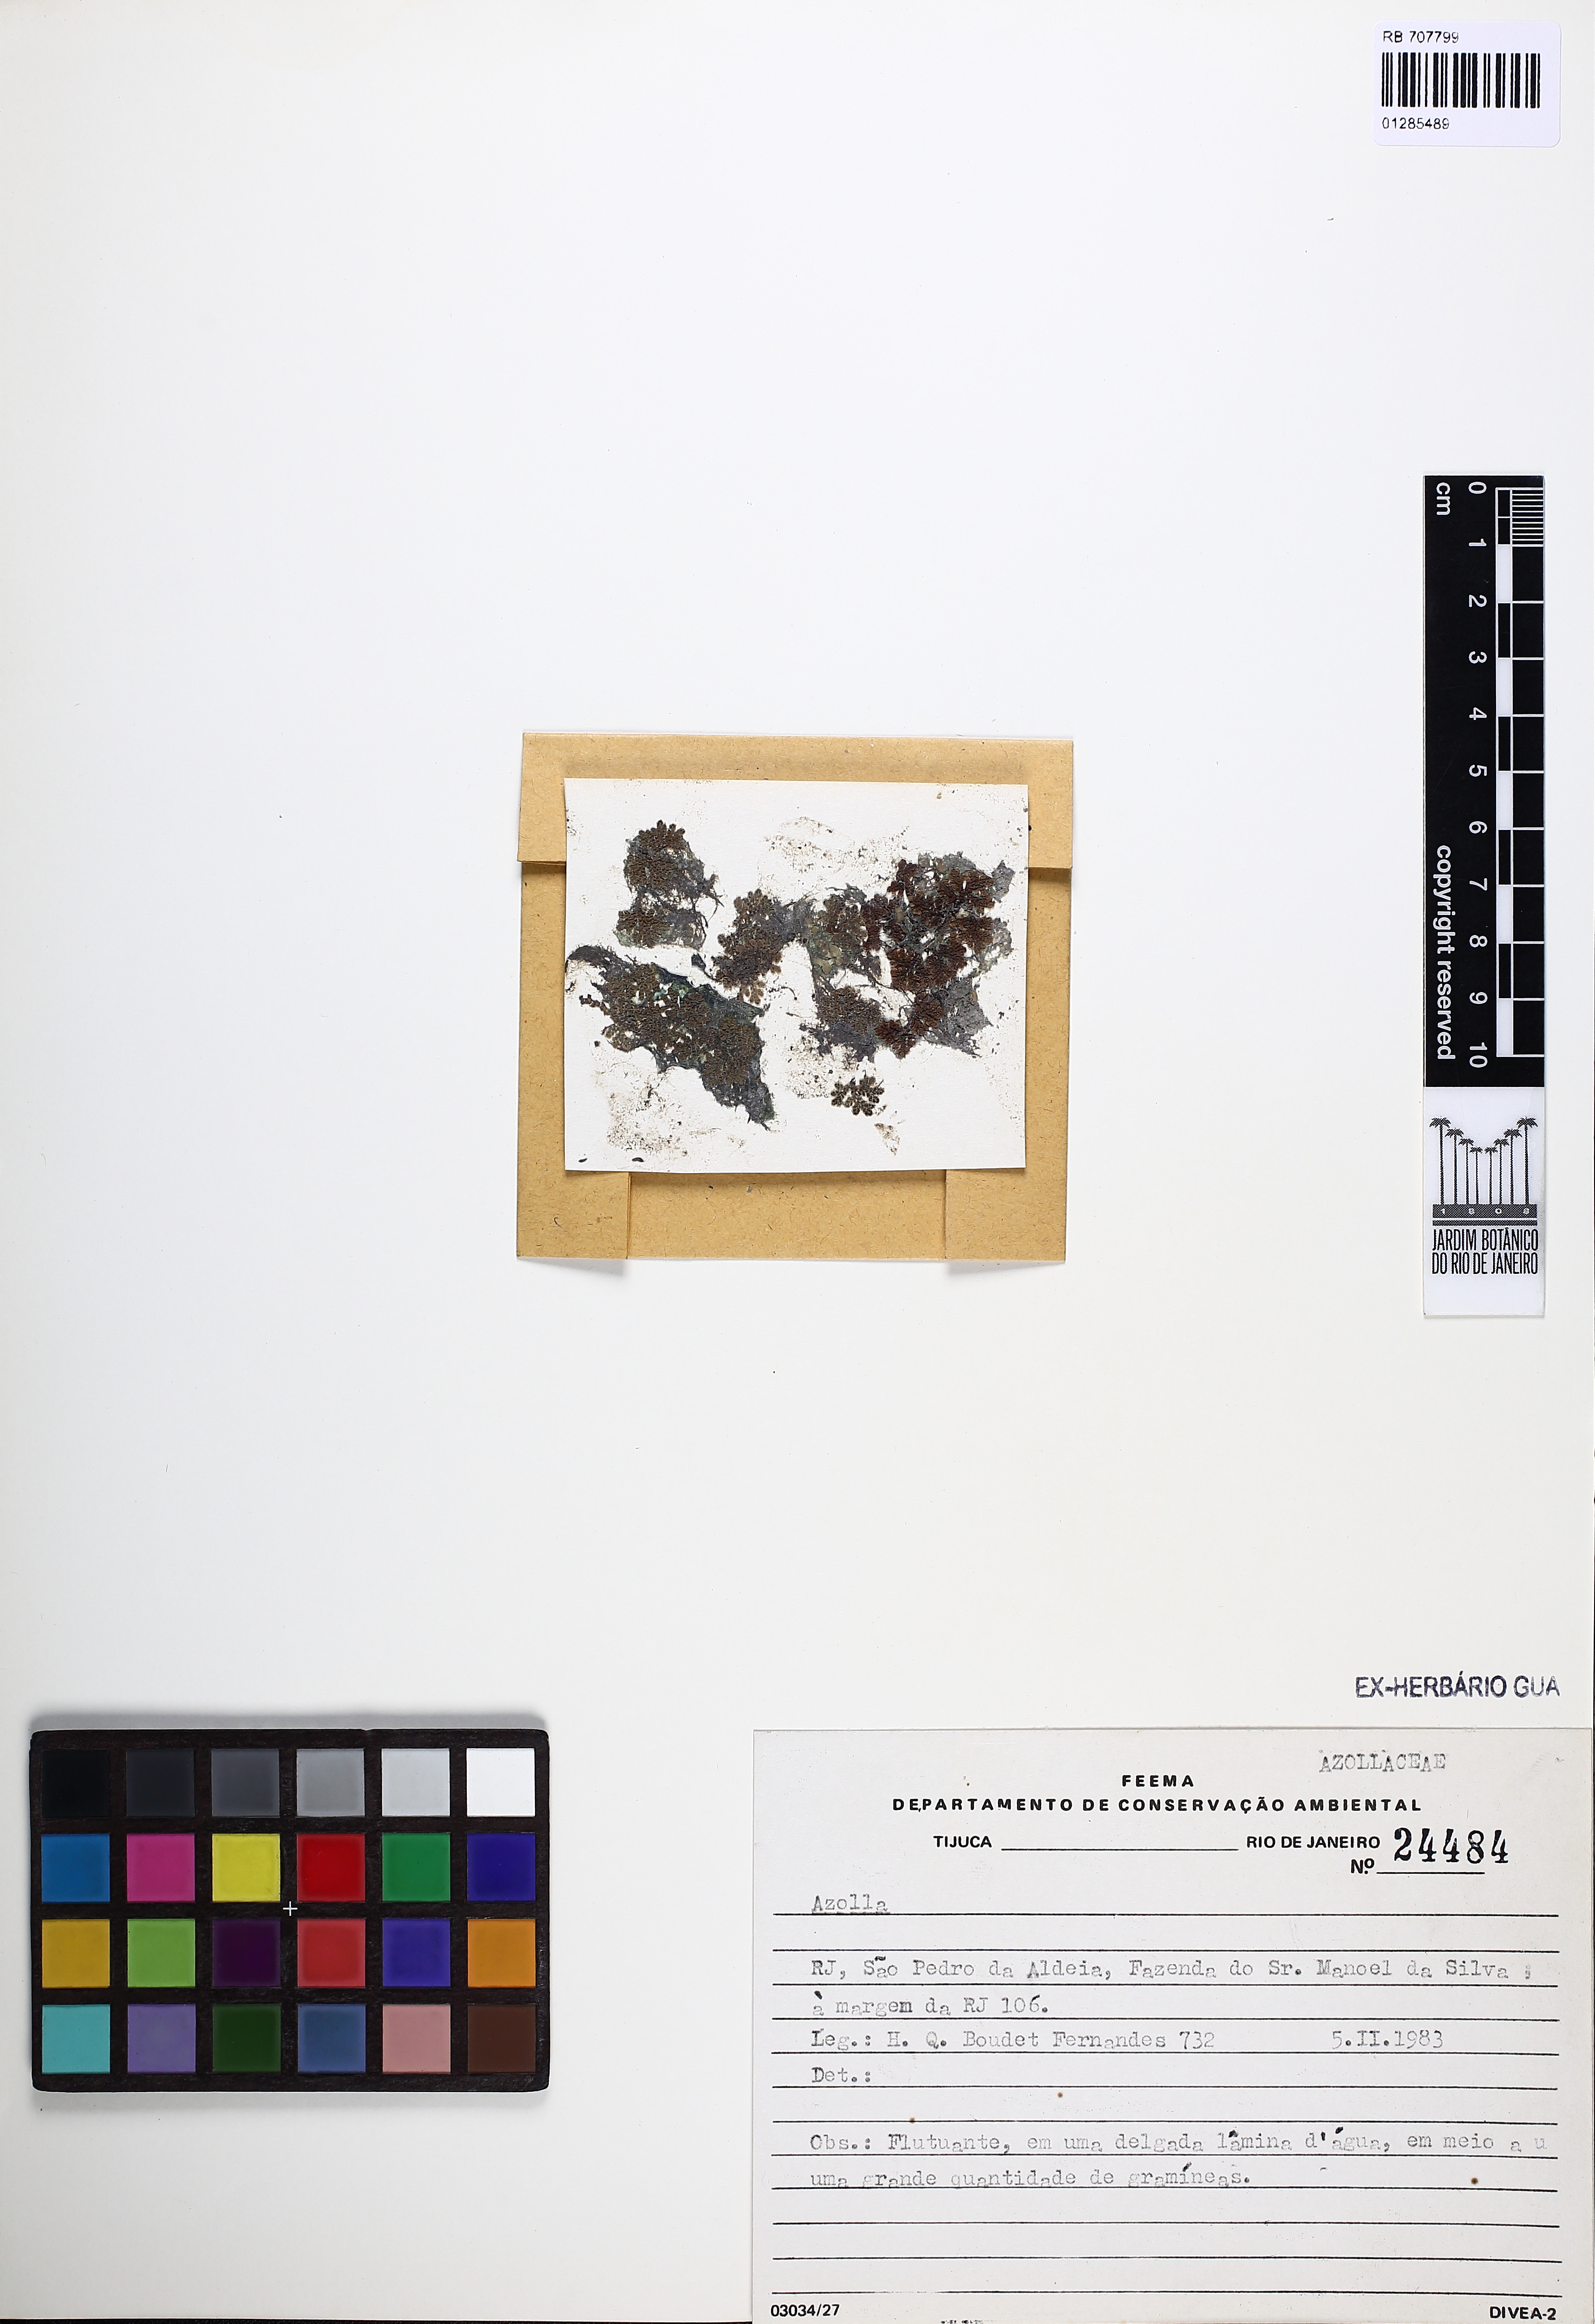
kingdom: Plantae
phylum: Tracheophyta
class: Polypodiopsida
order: Salviniales
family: Salviniaceae
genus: Azolla
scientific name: Azolla
